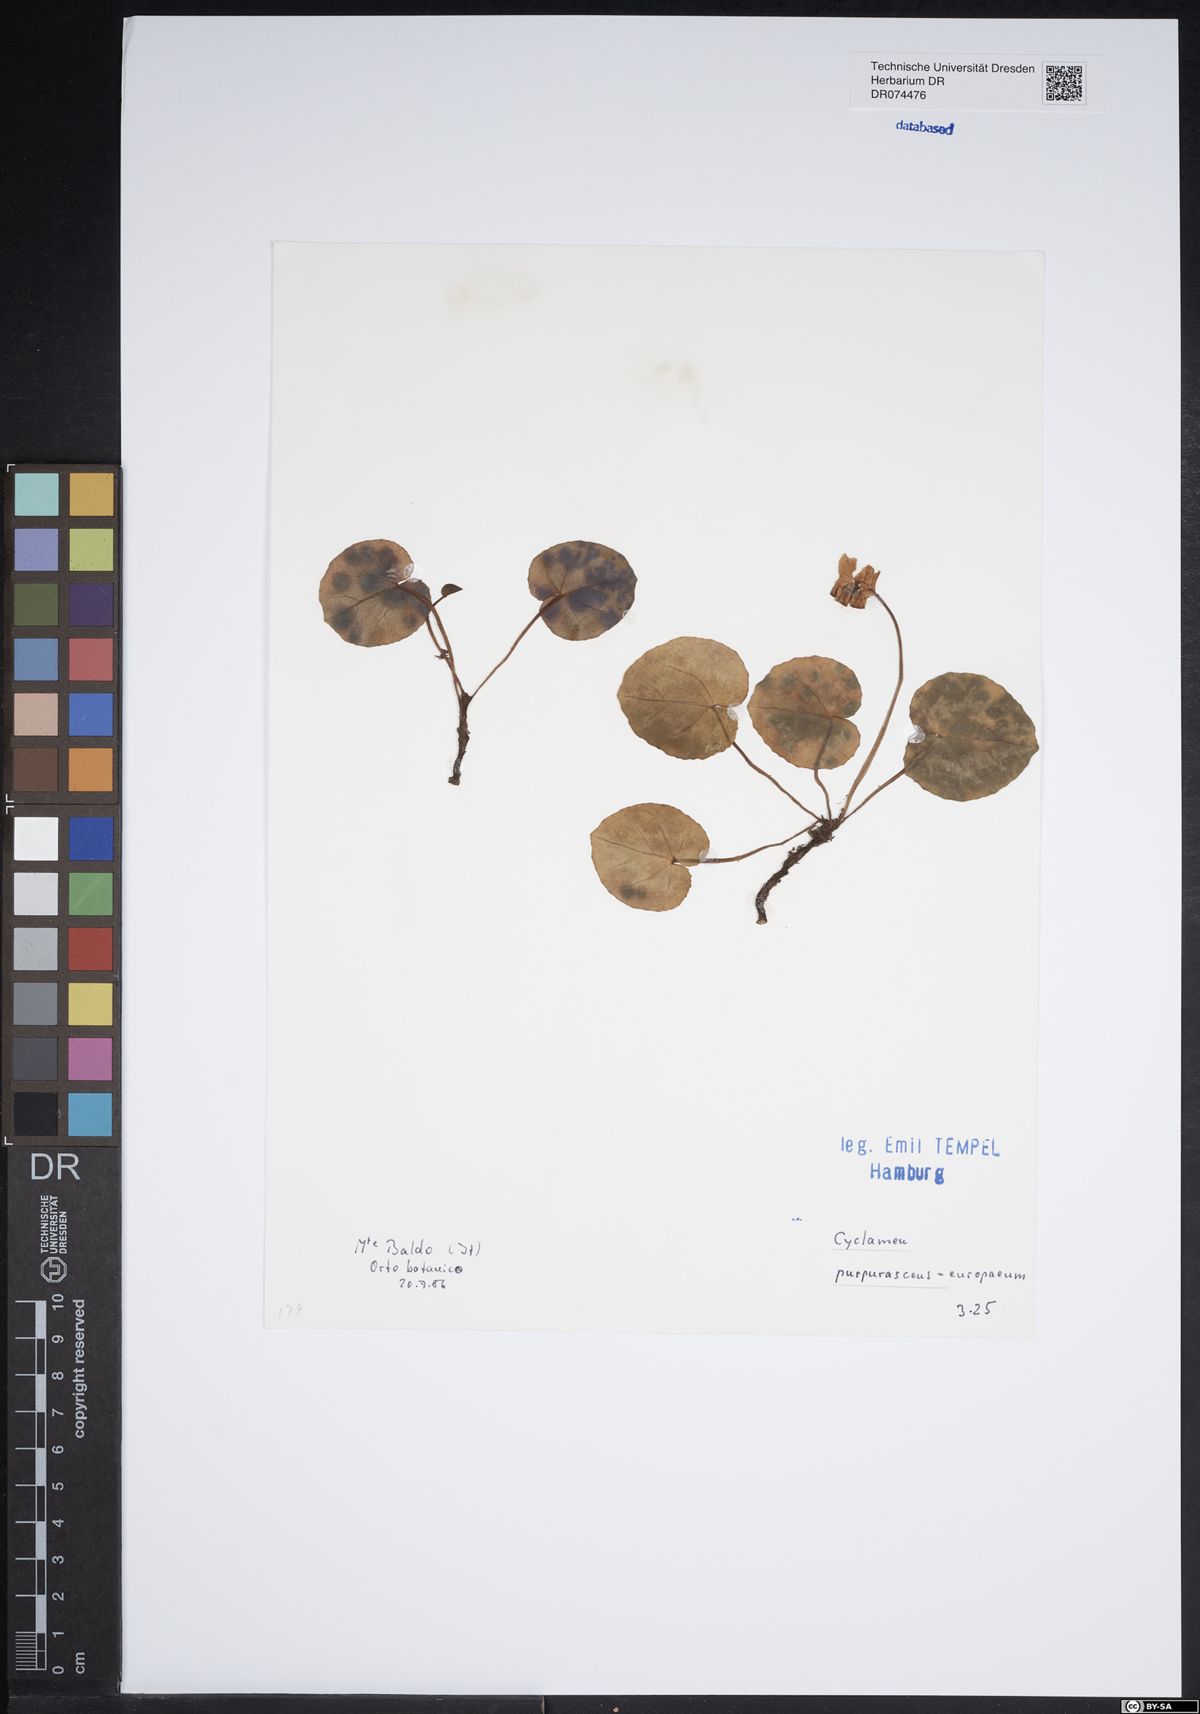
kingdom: Plantae
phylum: Tracheophyta
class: Magnoliopsida
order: Ericales
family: Primulaceae
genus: Cyclamen
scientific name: Cyclamen purpurascens
